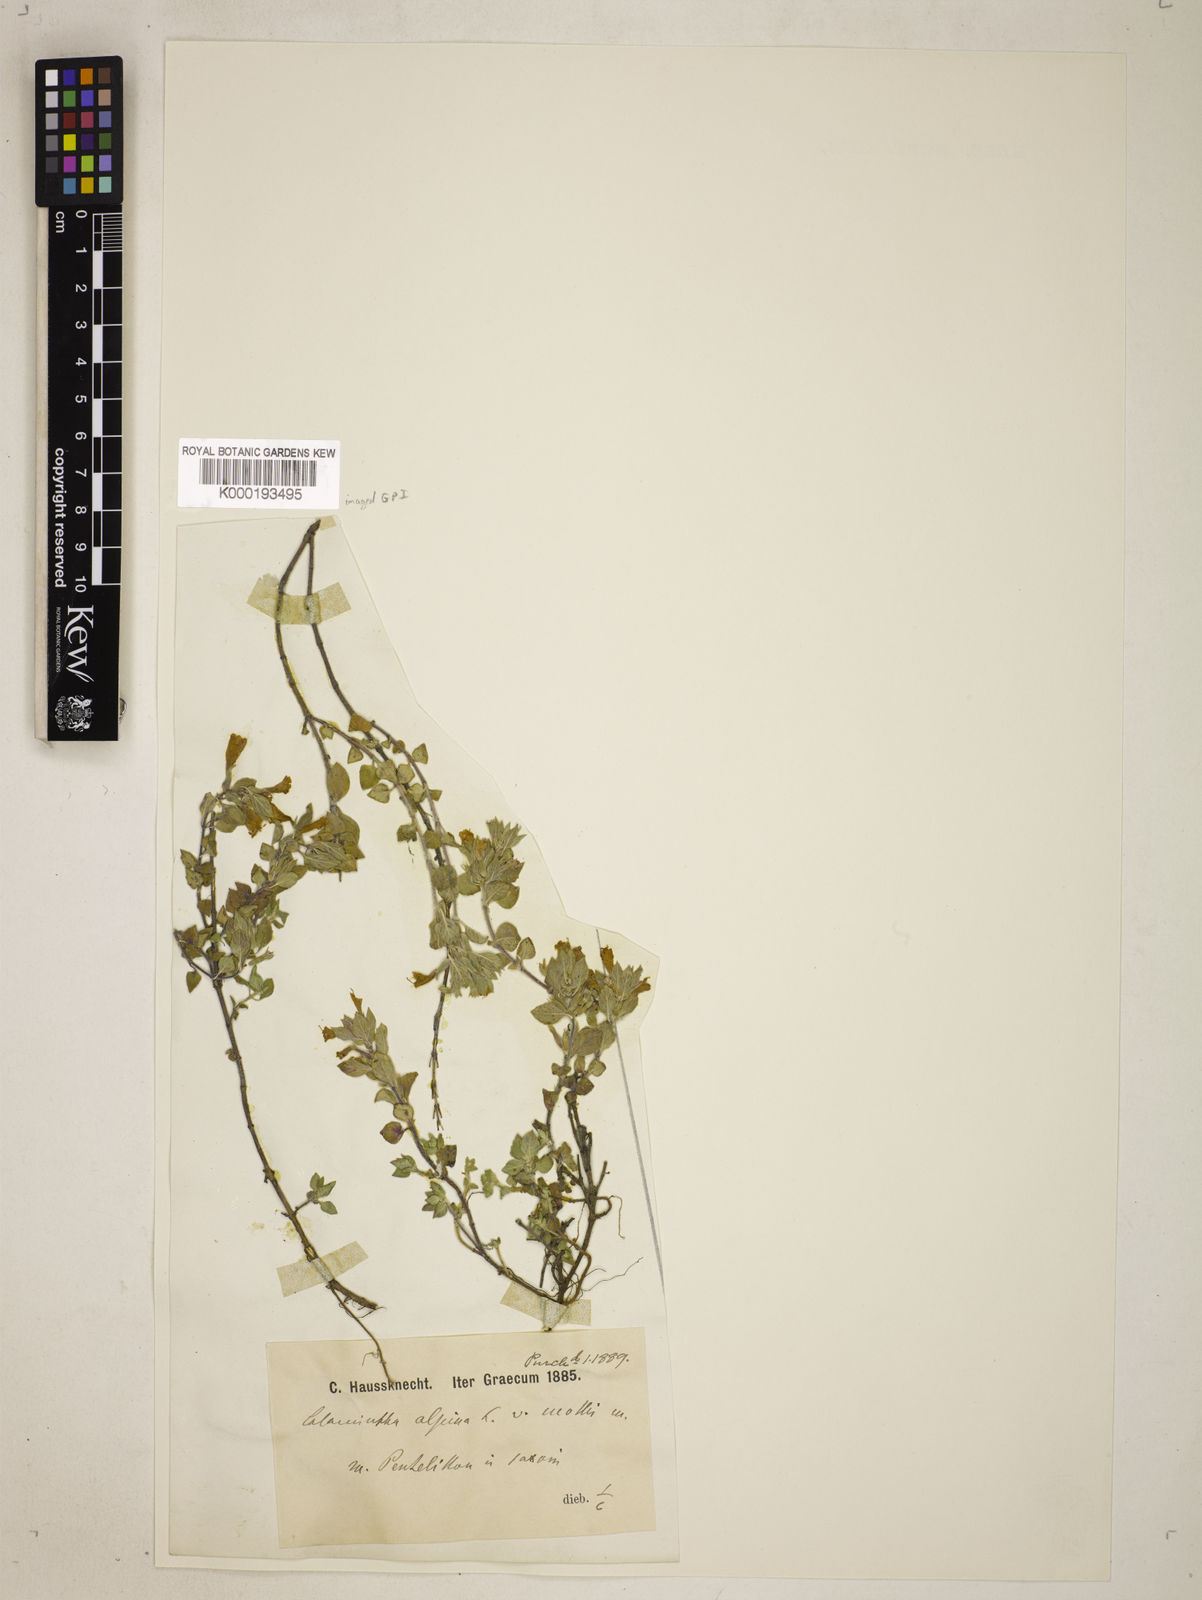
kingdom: Plantae
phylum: Tracheophyta
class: Magnoliopsida
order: Lamiales
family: Lamiaceae
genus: Clinopodium
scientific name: Clinopodium alpinum
